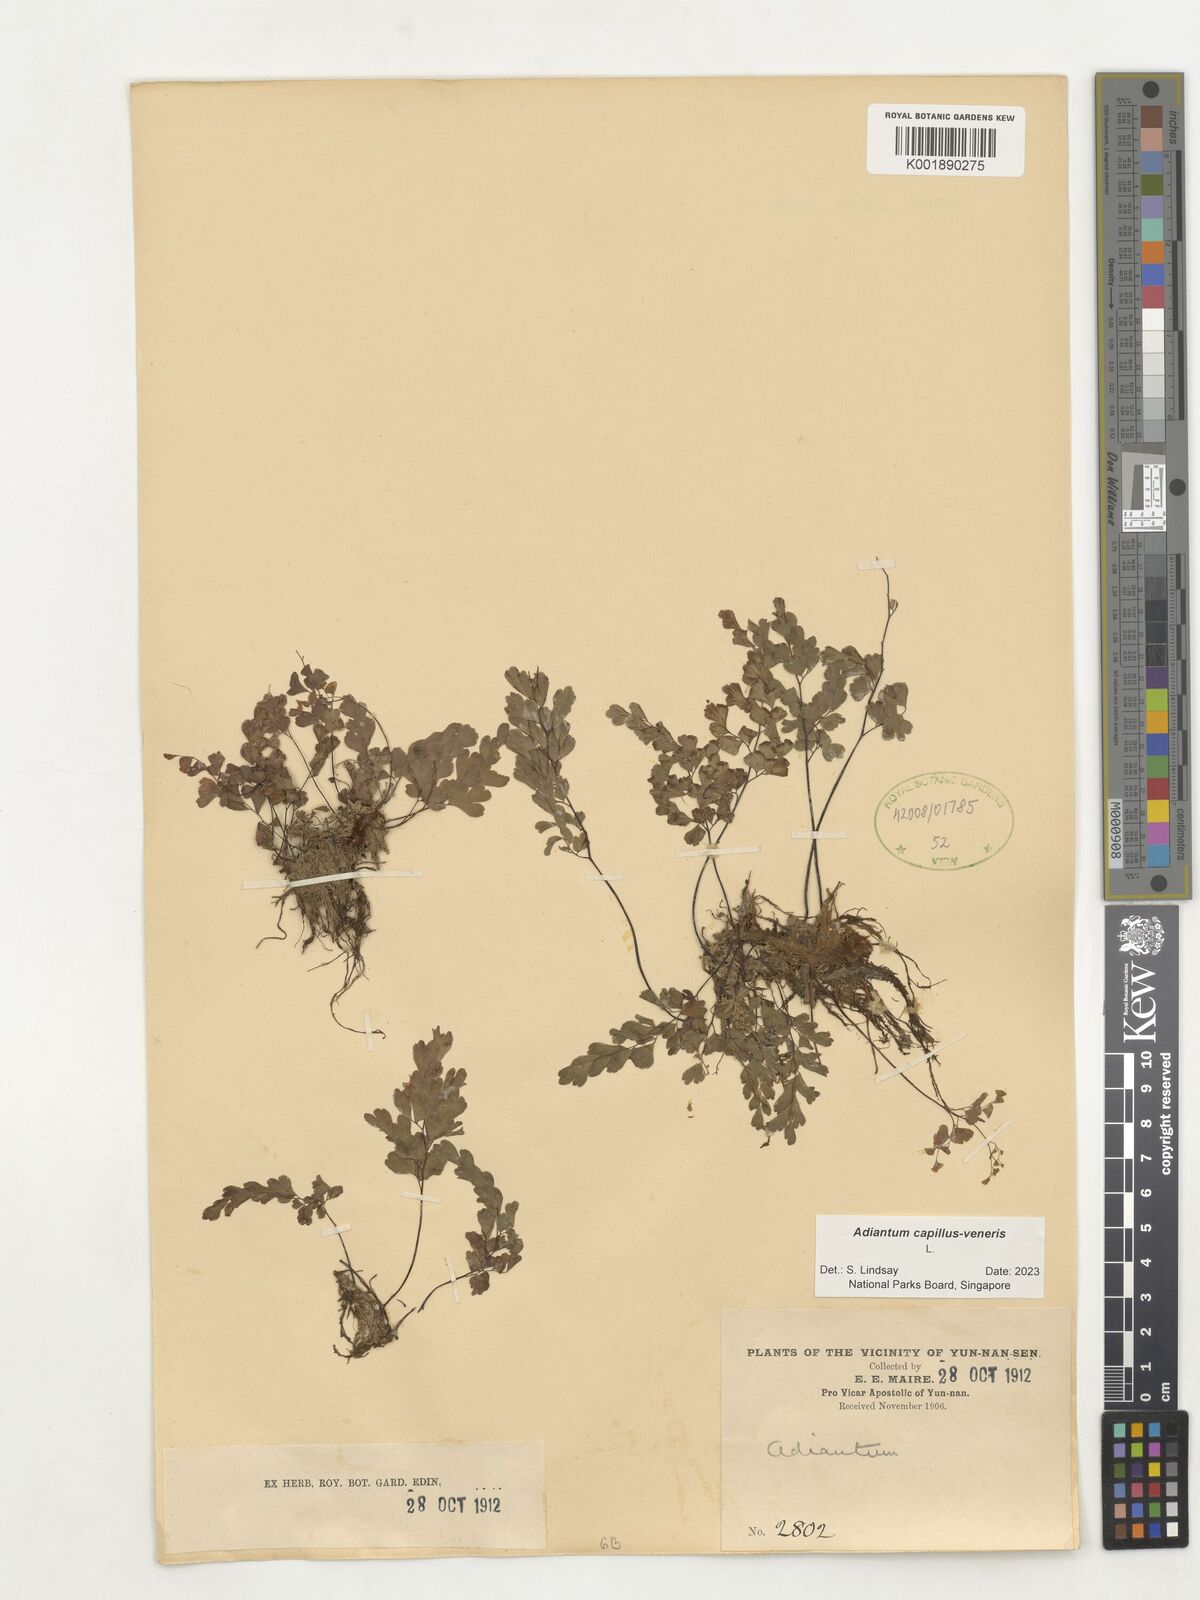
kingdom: Plantae
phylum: Tracheophyta
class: Polypodiopsida
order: Polypodiales
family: Pteridaceae
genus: Adiantum
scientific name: Adiantum capillus-veneris
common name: Maidenhair fern
